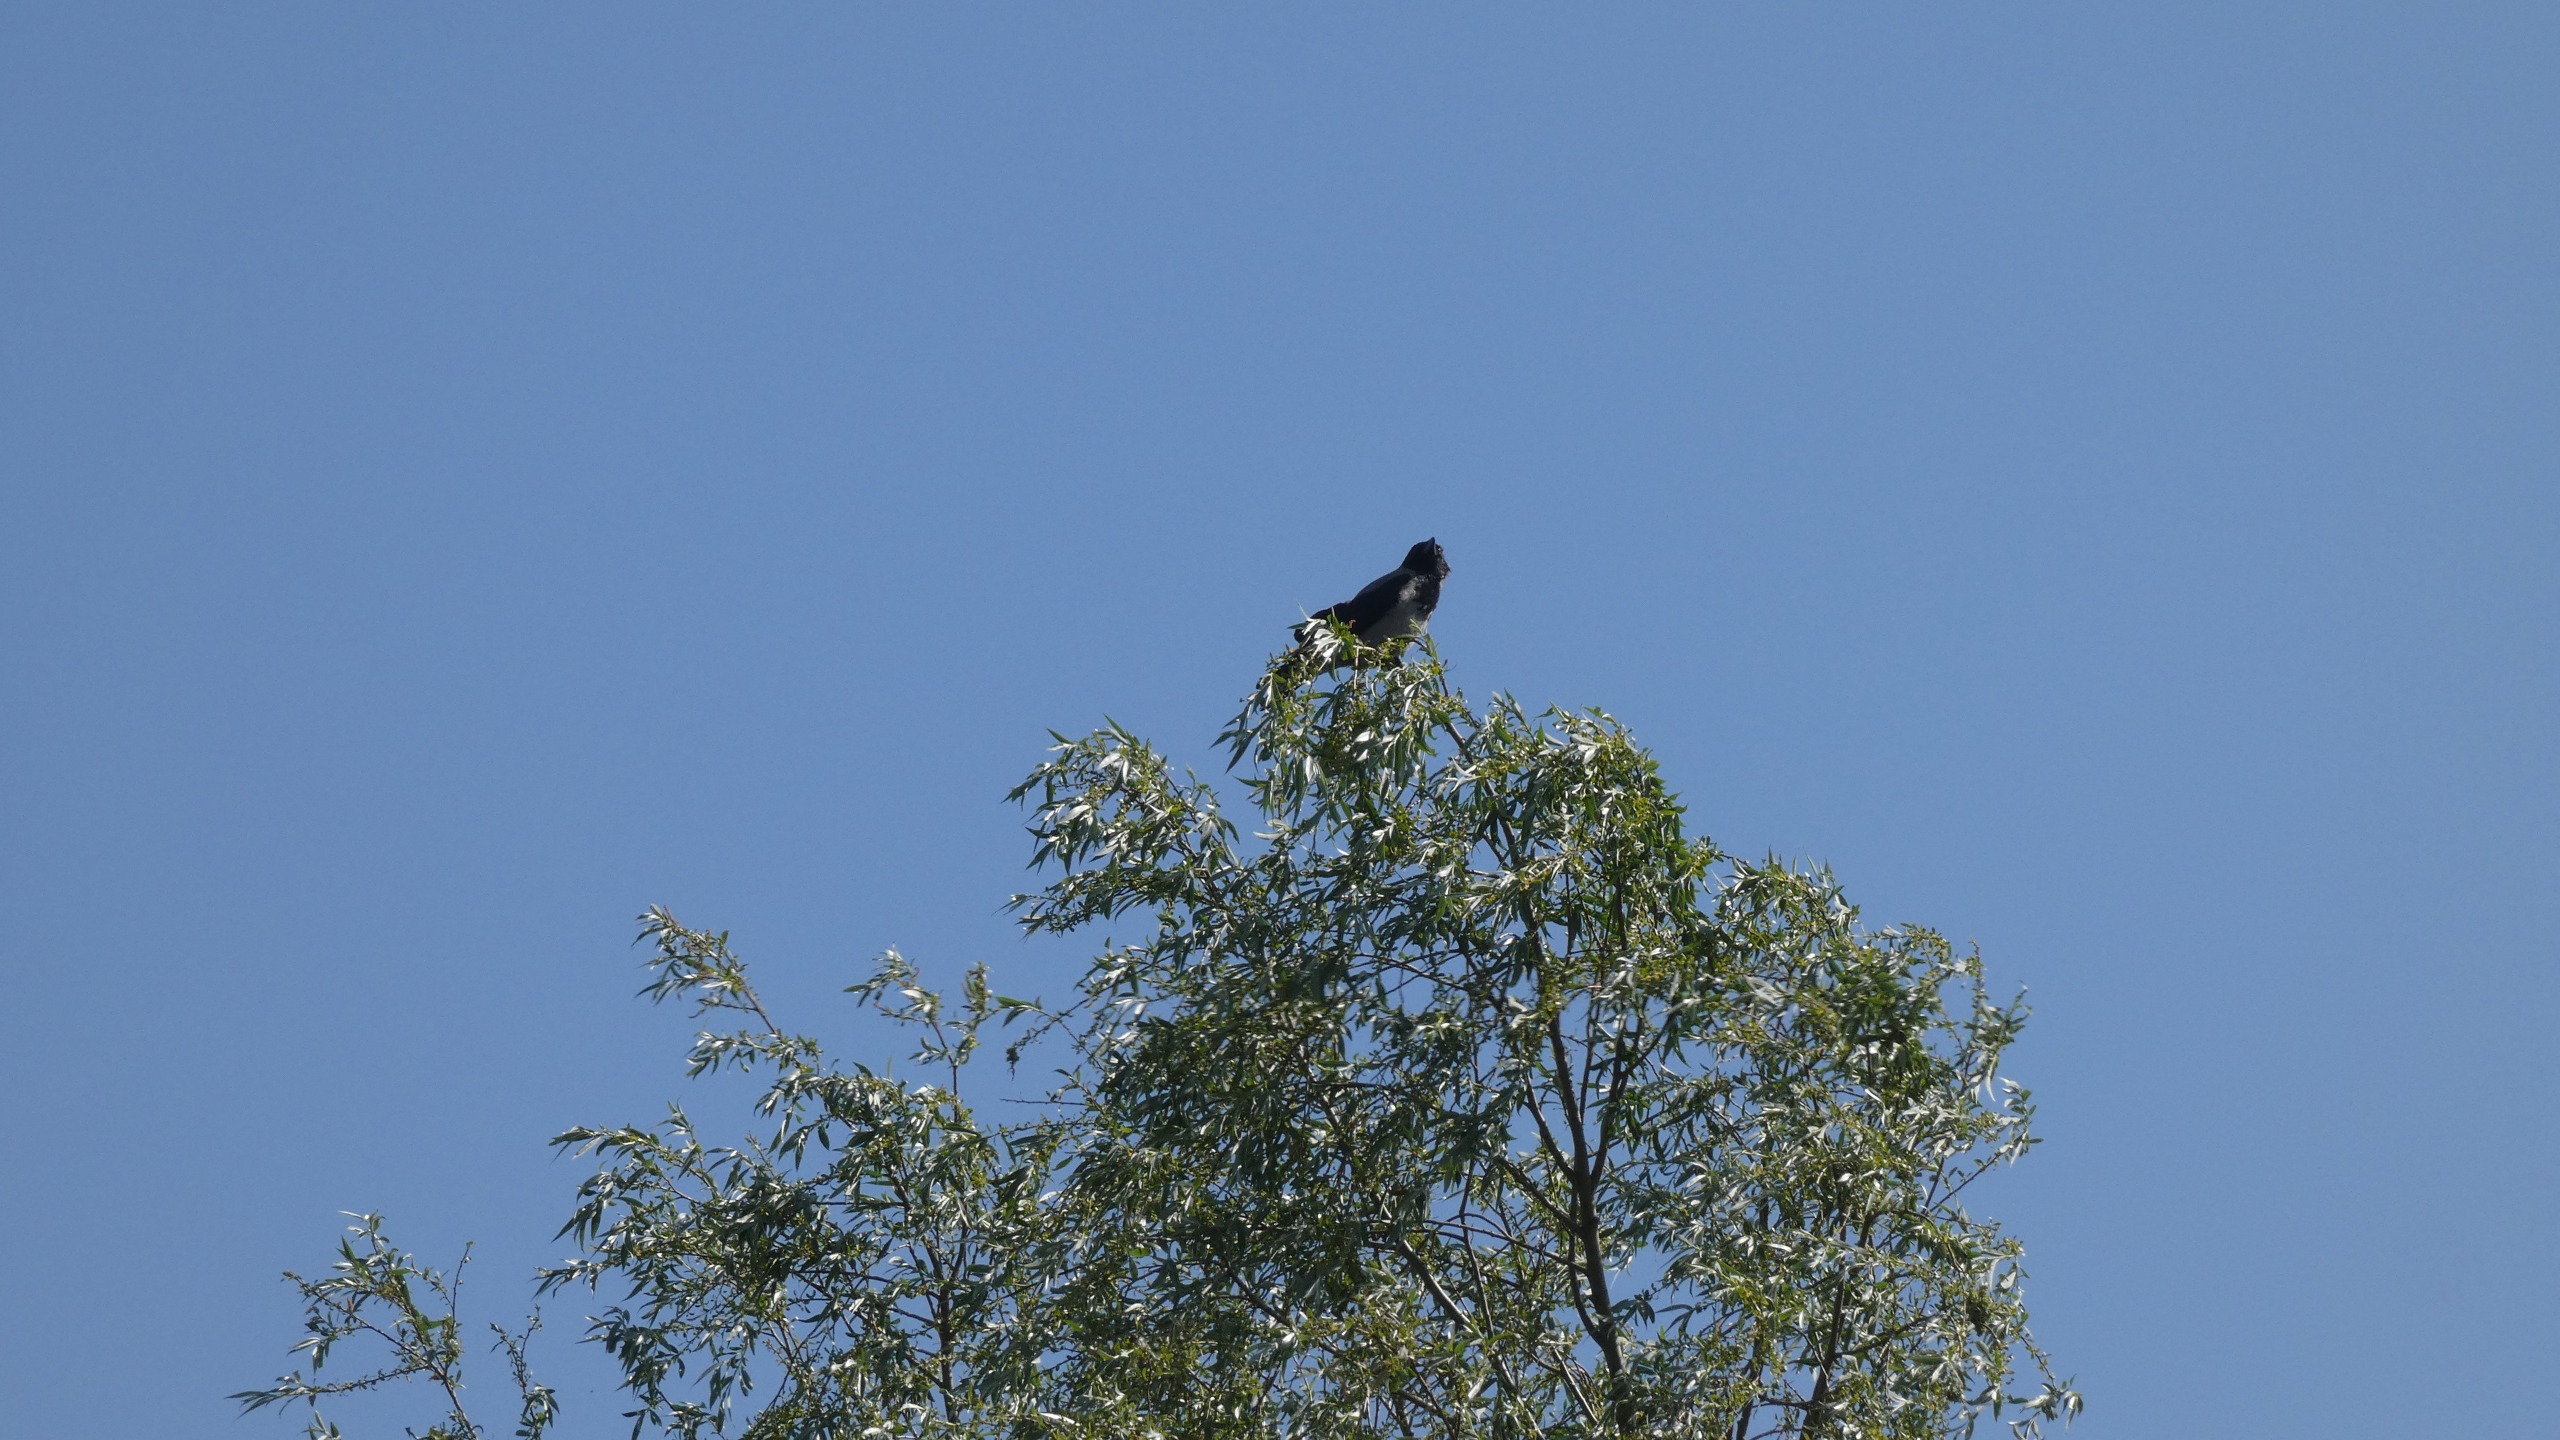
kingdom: Animalia
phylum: Chordata
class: Aves
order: Passeriformes
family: Corvidae
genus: Corvus
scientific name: Corvus cornix
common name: Gråkrage
